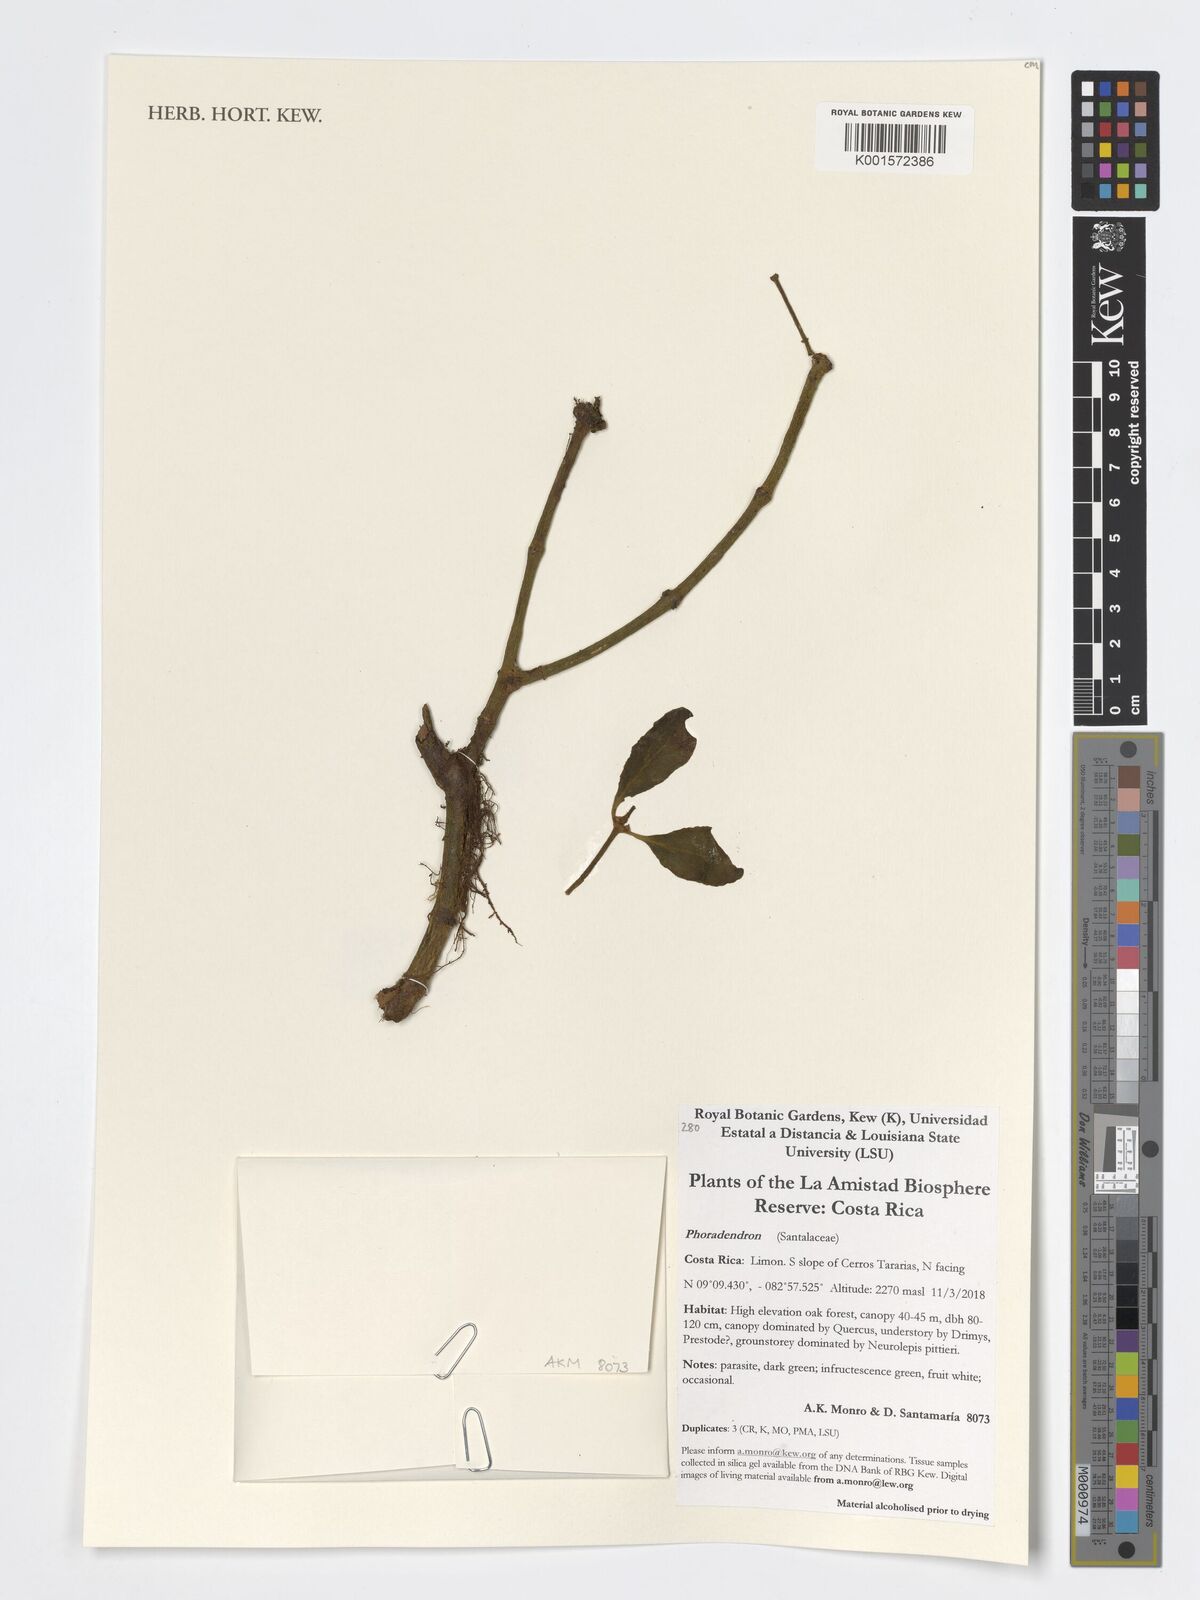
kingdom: Plantae
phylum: Tracheophyta
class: Magnoliopsida
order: Santalales
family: Viscaceae
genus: Phoradendron
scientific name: Phoradendron
